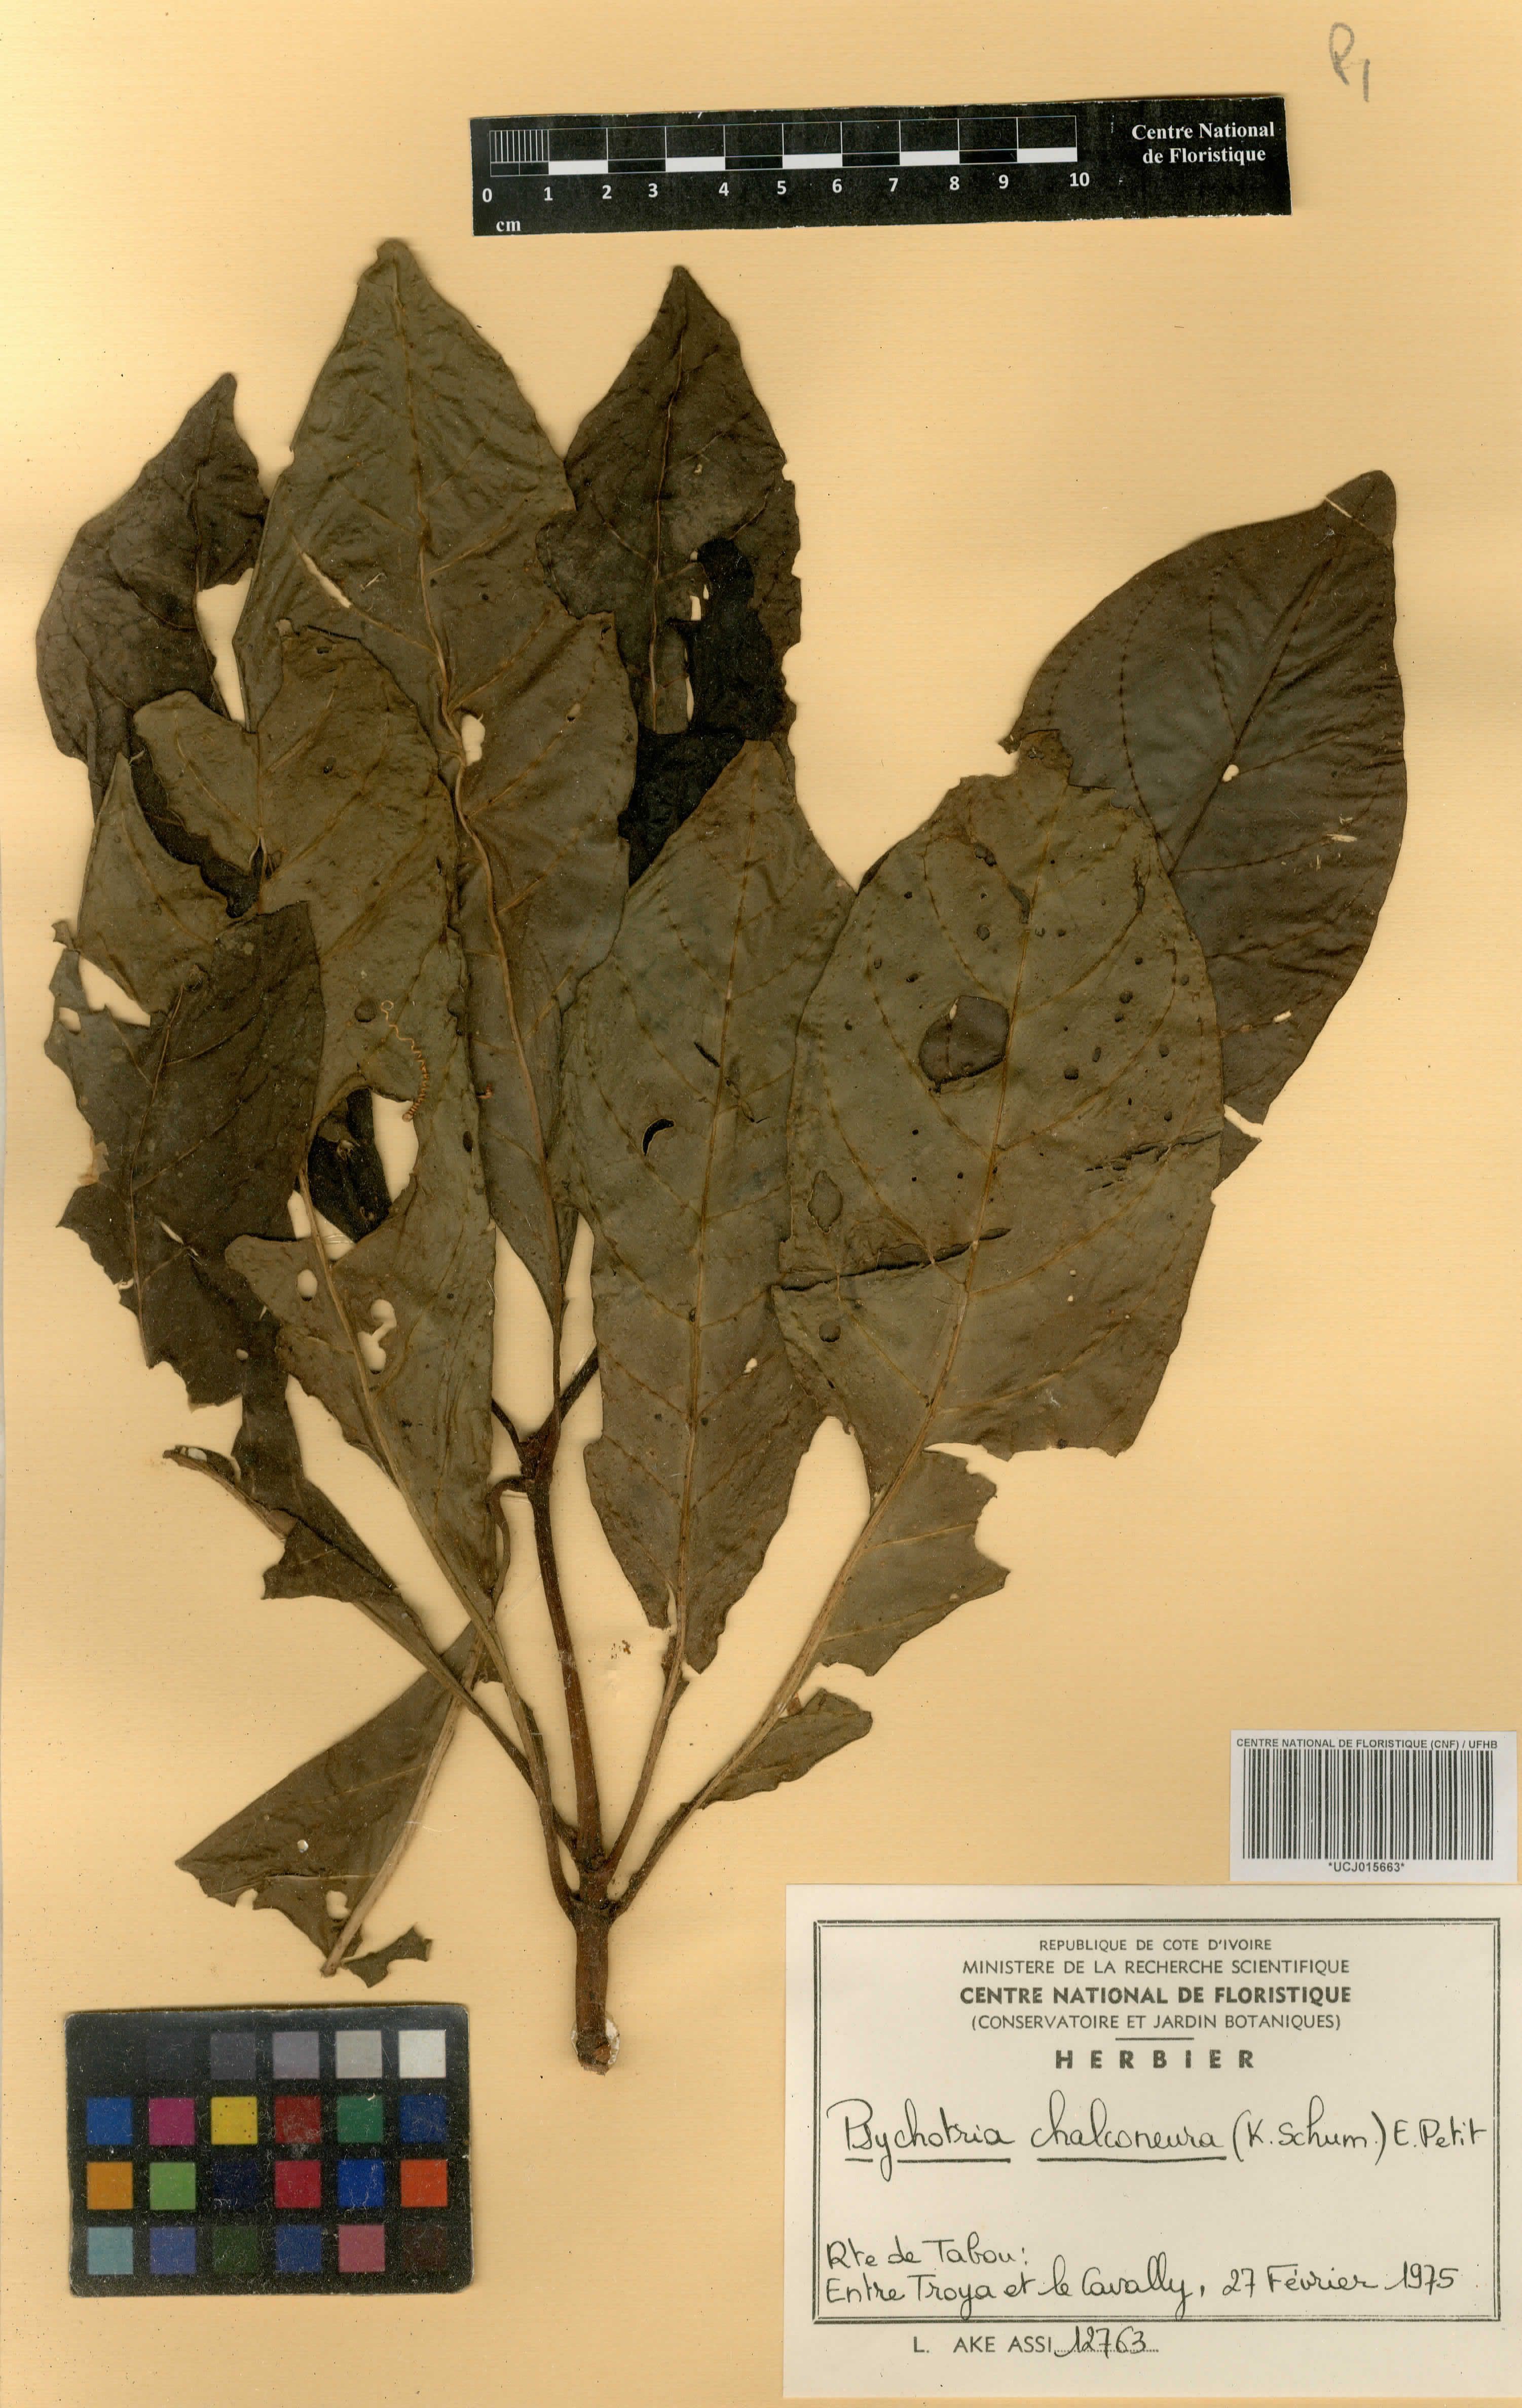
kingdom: Plantae
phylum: Tracheophyta
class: Magnoliopsida
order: Gentianales
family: Rubiaceae
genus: Psychotria
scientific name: Psychotria chalconeura
